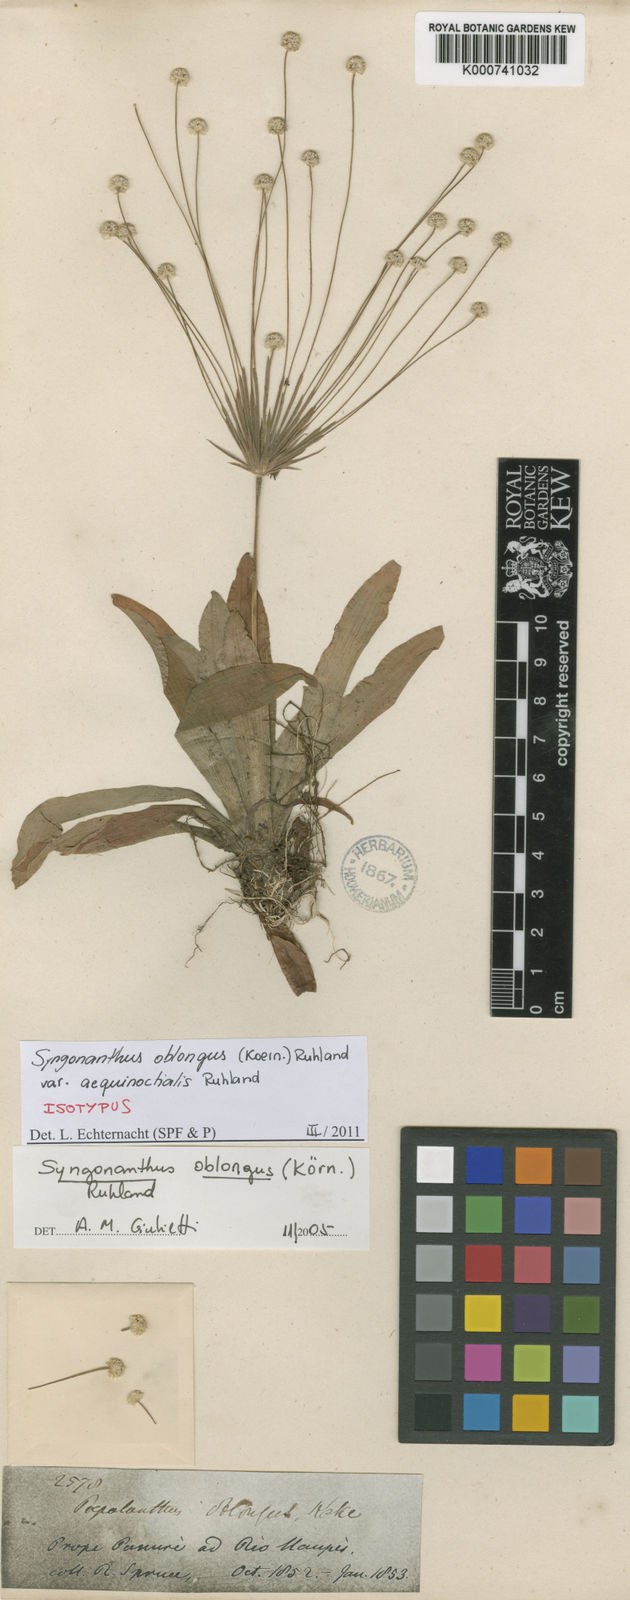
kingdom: Plantae
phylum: Tracheophyta
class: Liliopsida
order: Poales
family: Eriocaulaceae
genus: Syngonanthus
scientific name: Syngonanthus
